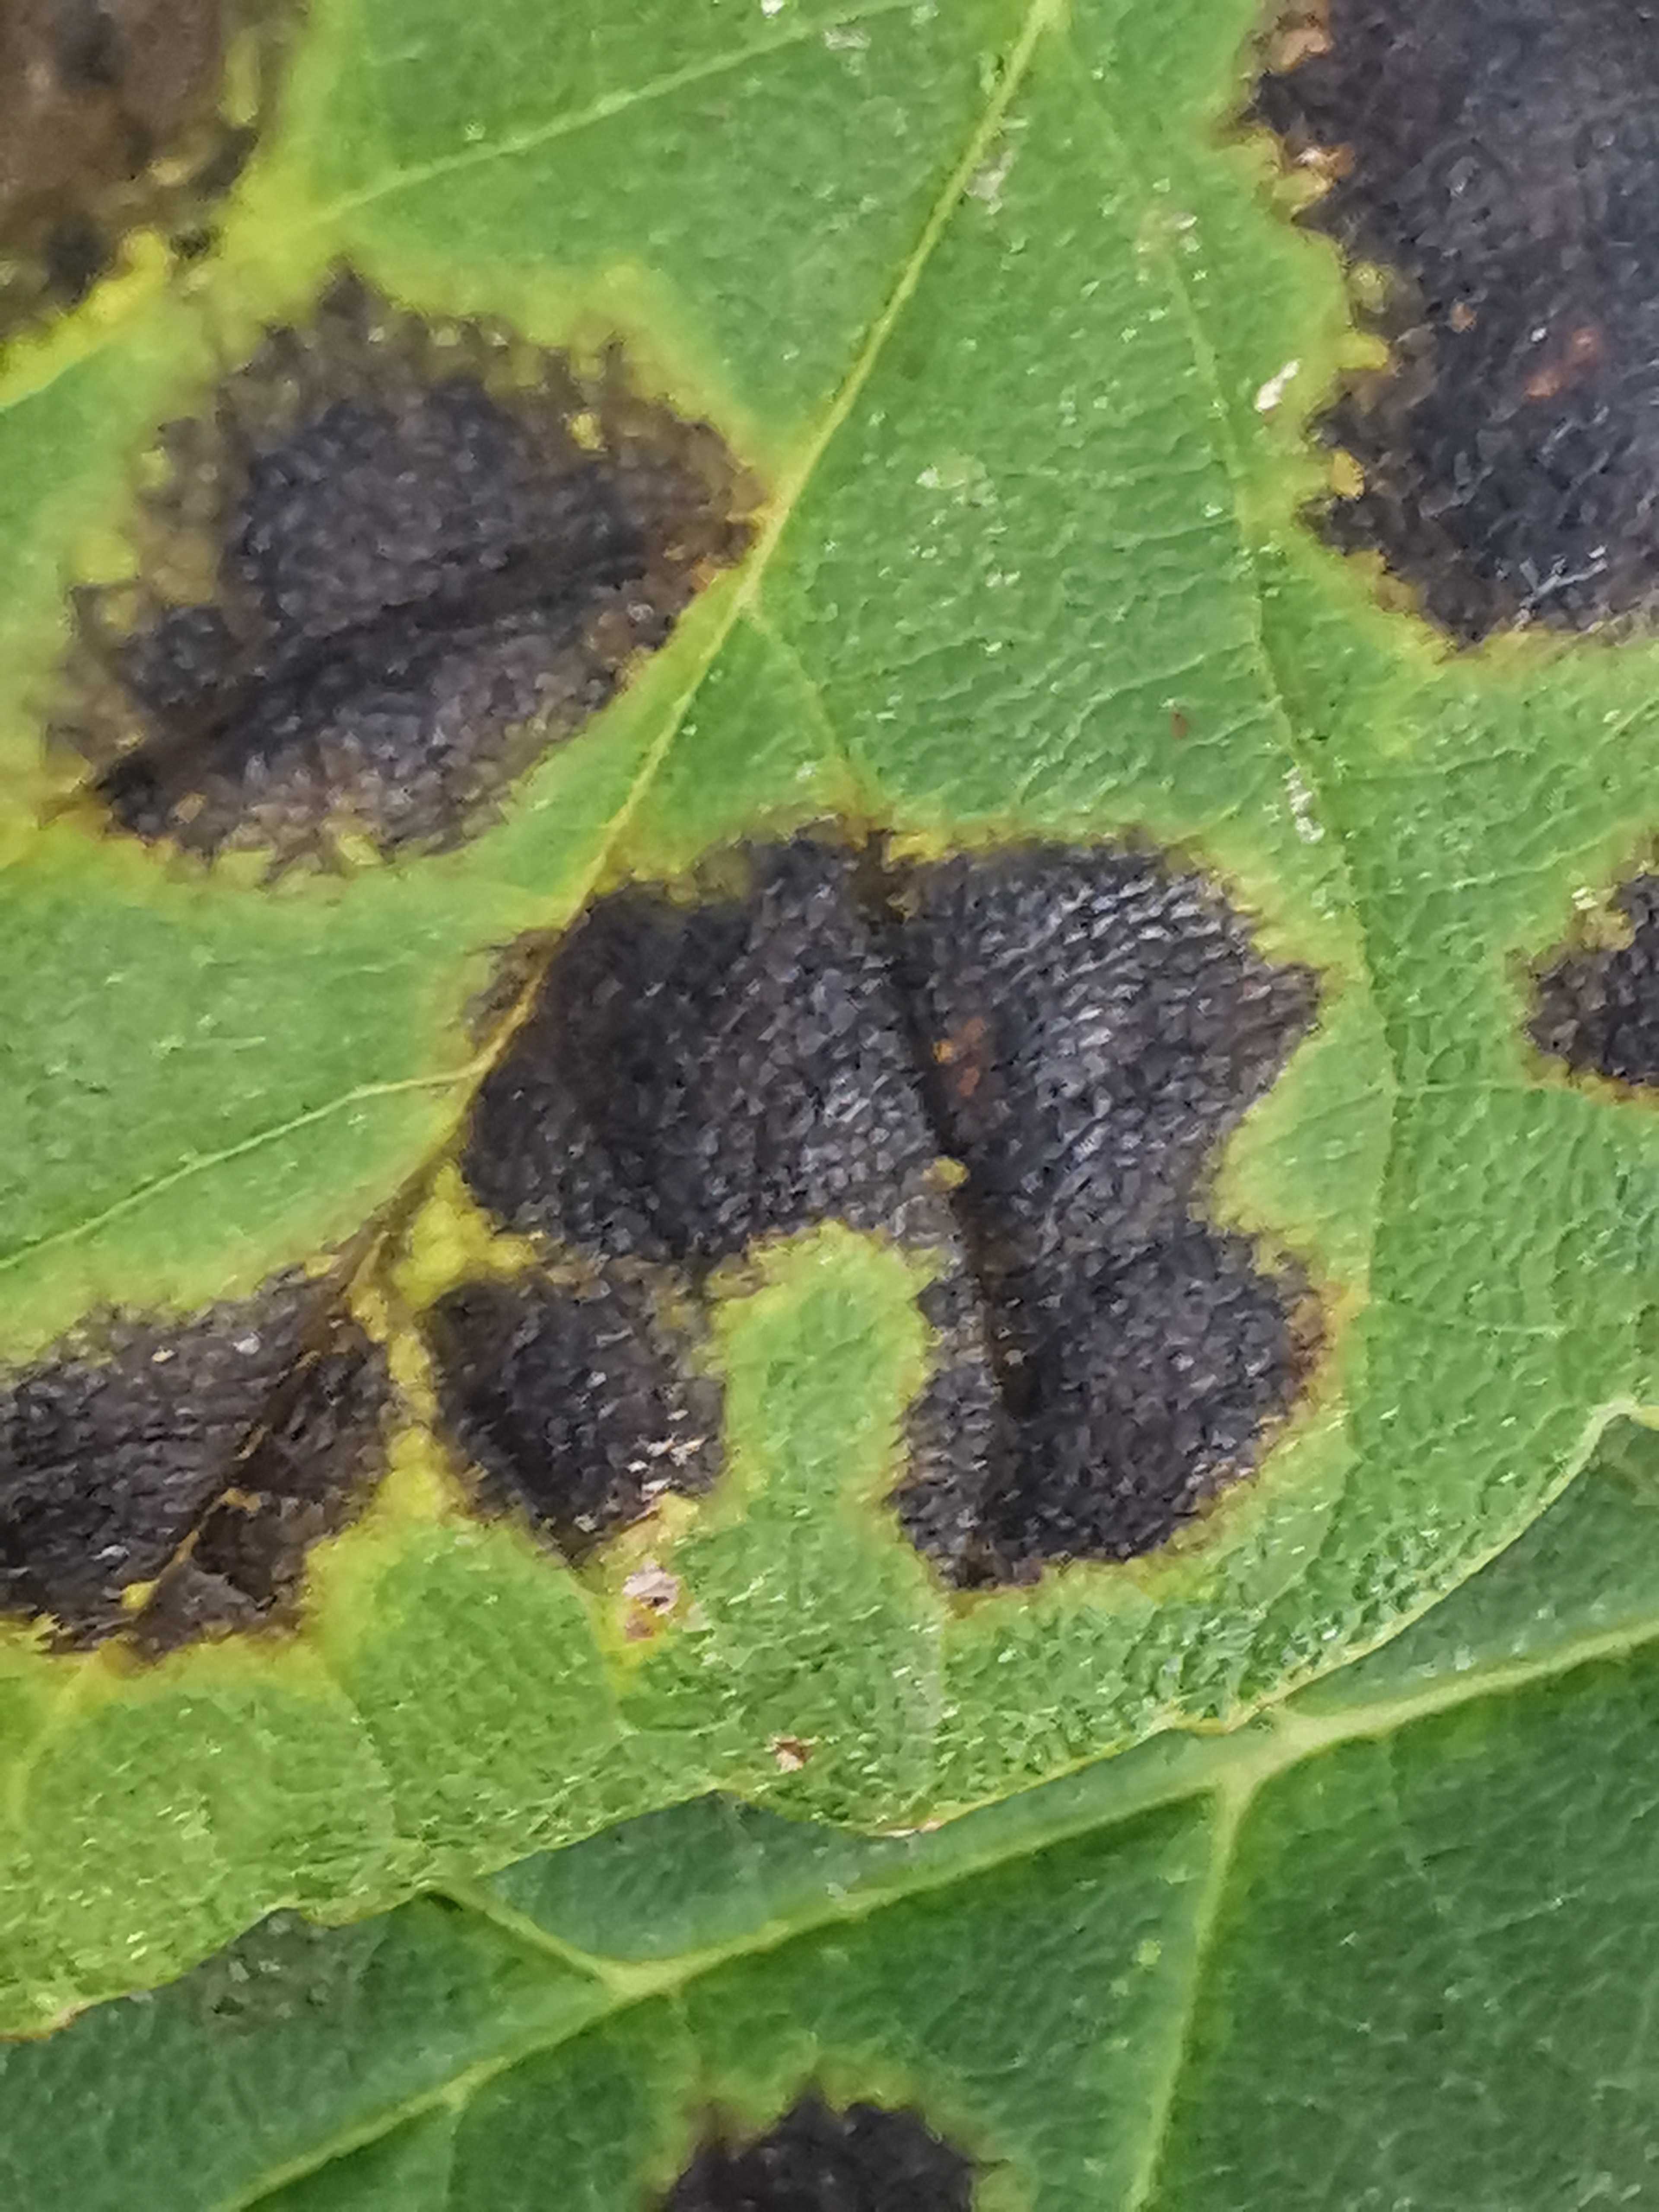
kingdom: Fungi
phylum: Ascomycota
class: Leotiomycetes
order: Rhytismatales
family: Rhytismataceae
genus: Rhytisma
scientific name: Rhytisma acerinum
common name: ahorn-rynkeplet
